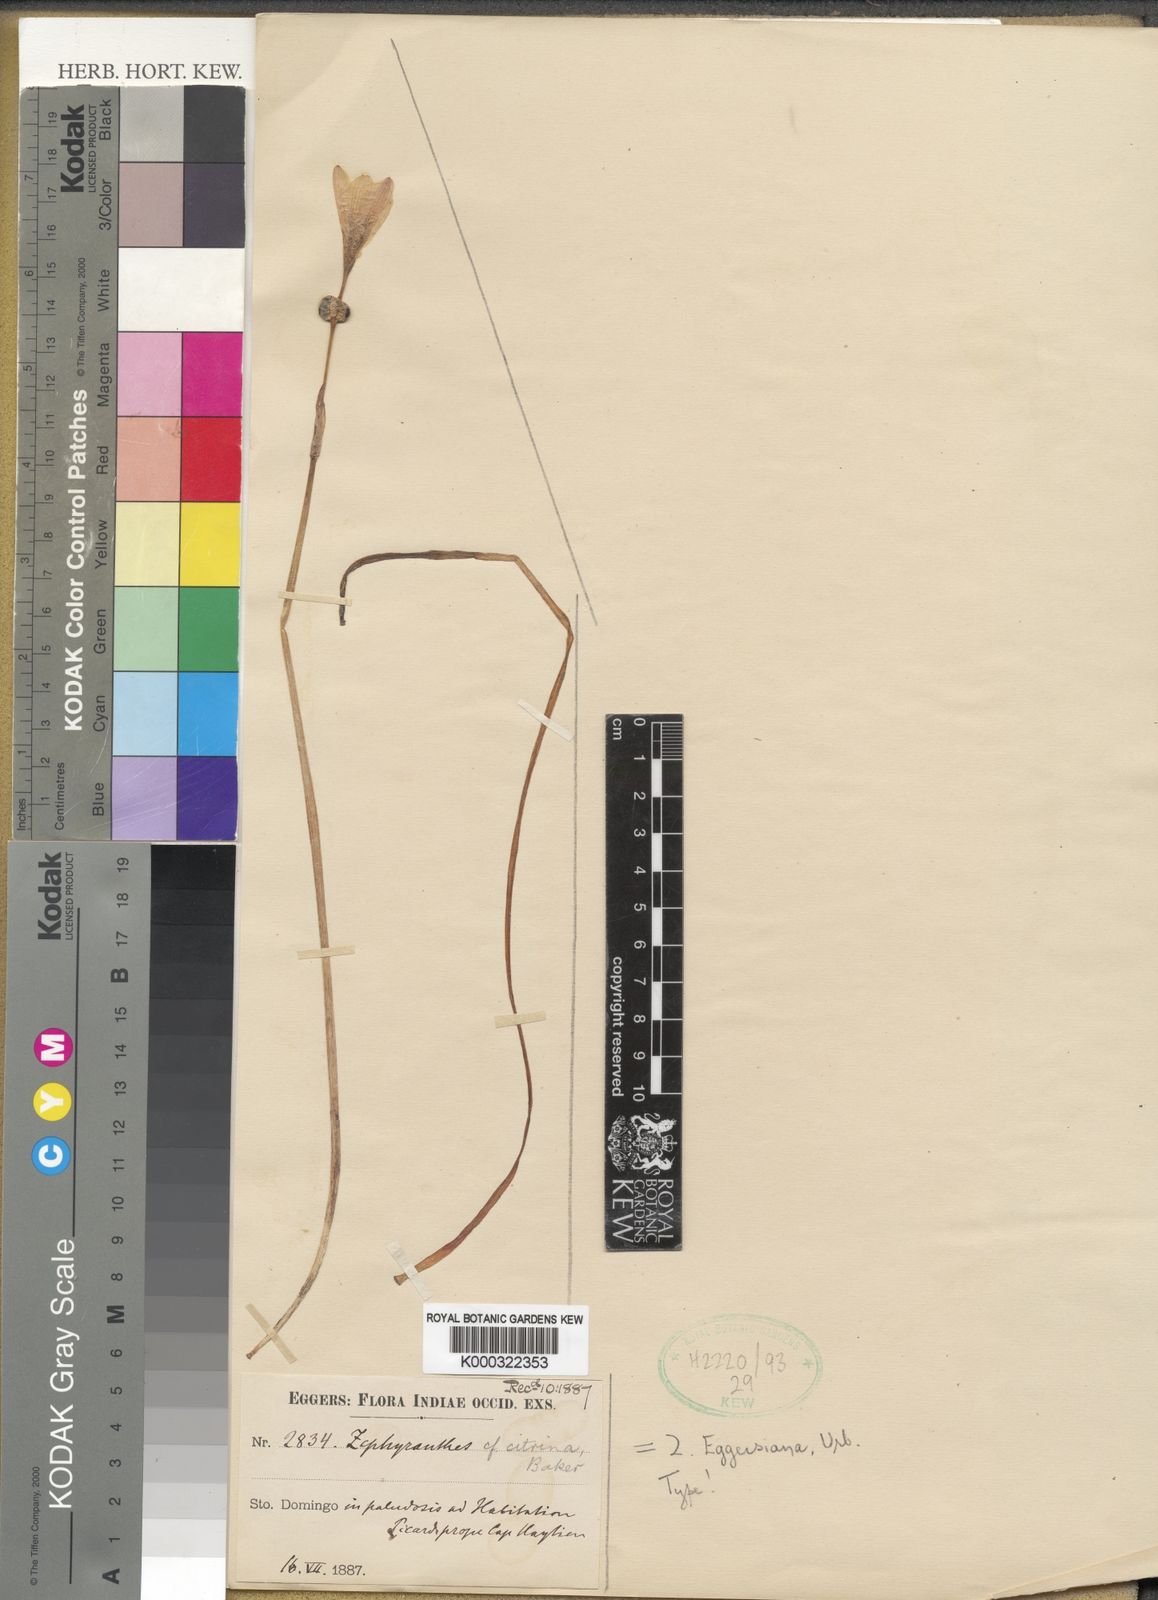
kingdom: Plantae
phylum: Tracheophyta
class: Liliopsida
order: Asparagales
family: Amaryllidaceae
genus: Zephyranthes
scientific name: Zephyranthes citrina
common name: Citron zephyrlily
